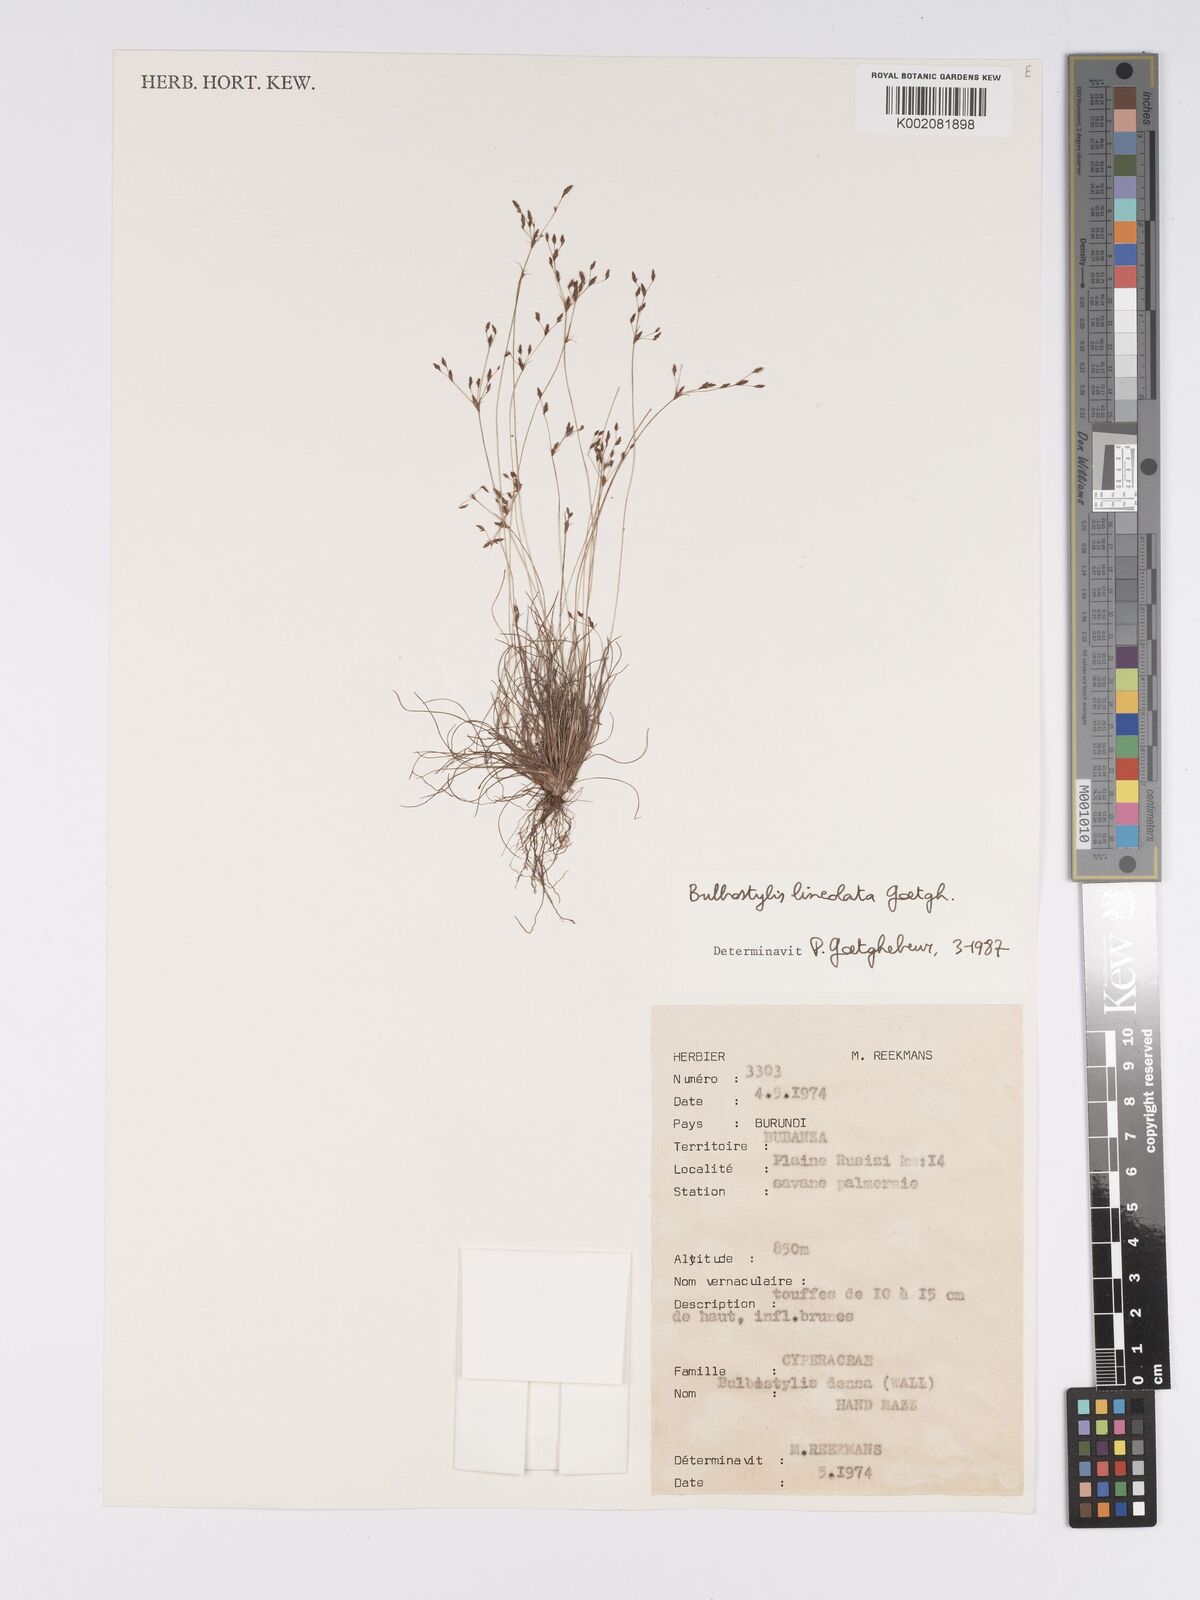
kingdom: Plantae
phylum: Tracheophyta
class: Liliopsida
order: Poales
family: Cyperaceae
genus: Bulbostylis
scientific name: Bulbostylis scrobiculata
